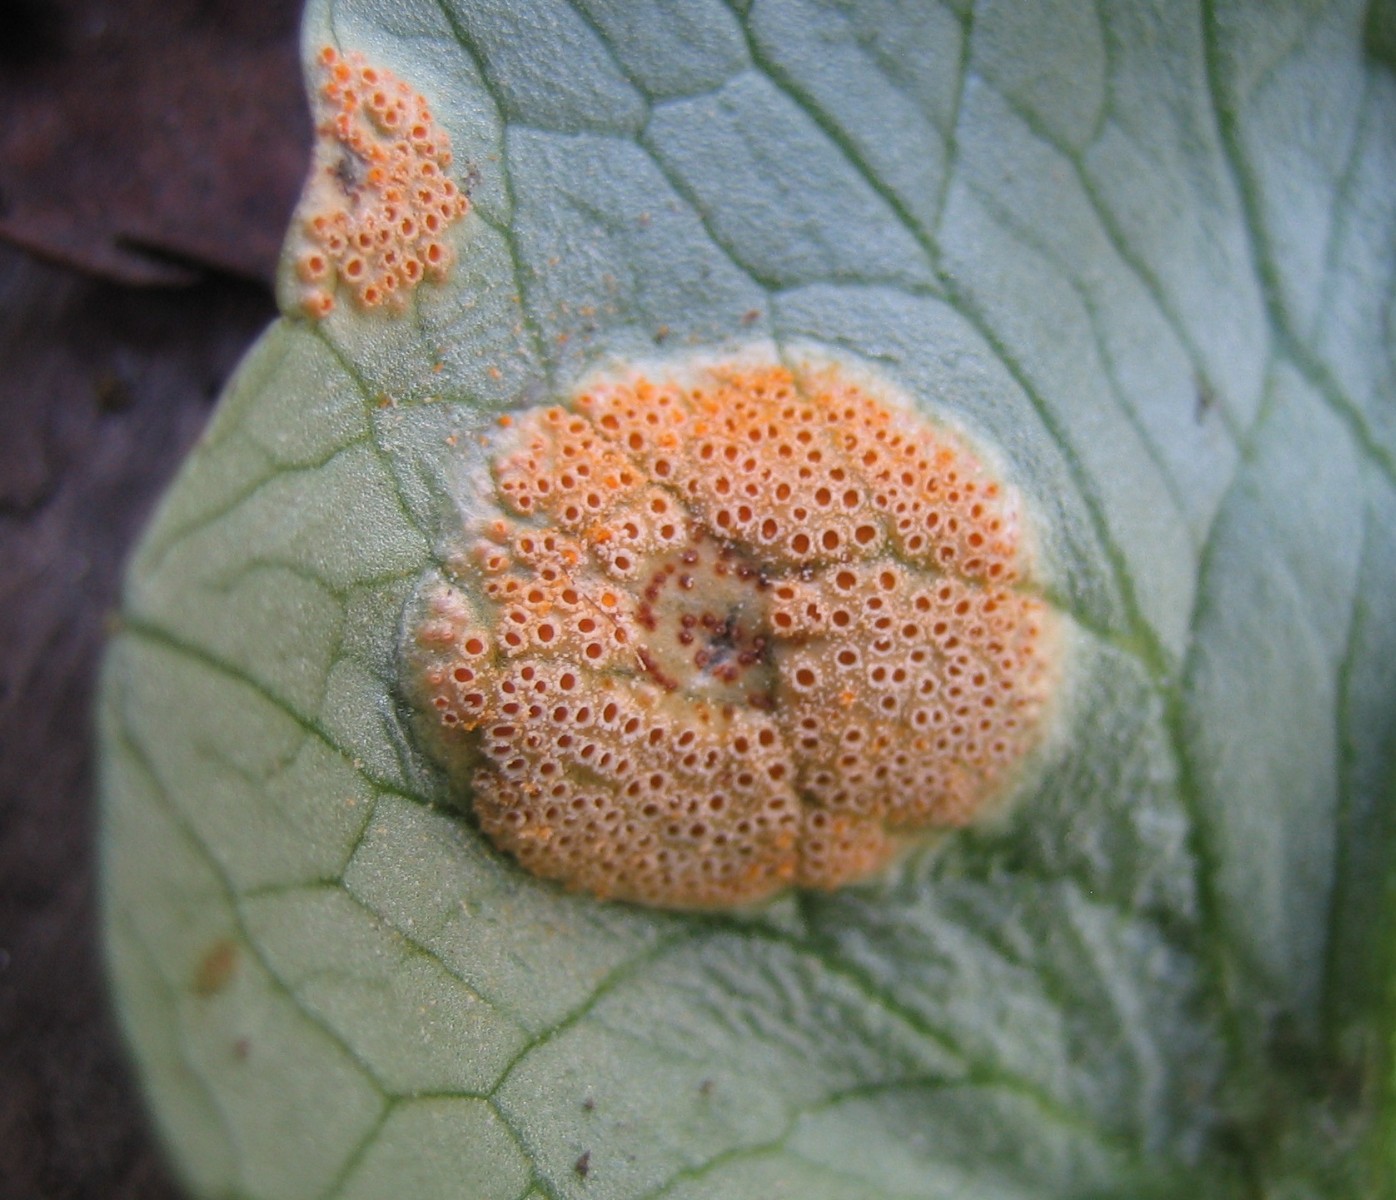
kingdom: Fungi
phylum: Basidiomycota
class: Pucciniomycetes
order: Pucciniales
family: Pucciniaceae
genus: Uromyces
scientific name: Uromyces dactylidis
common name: ranunkel-encellerust
